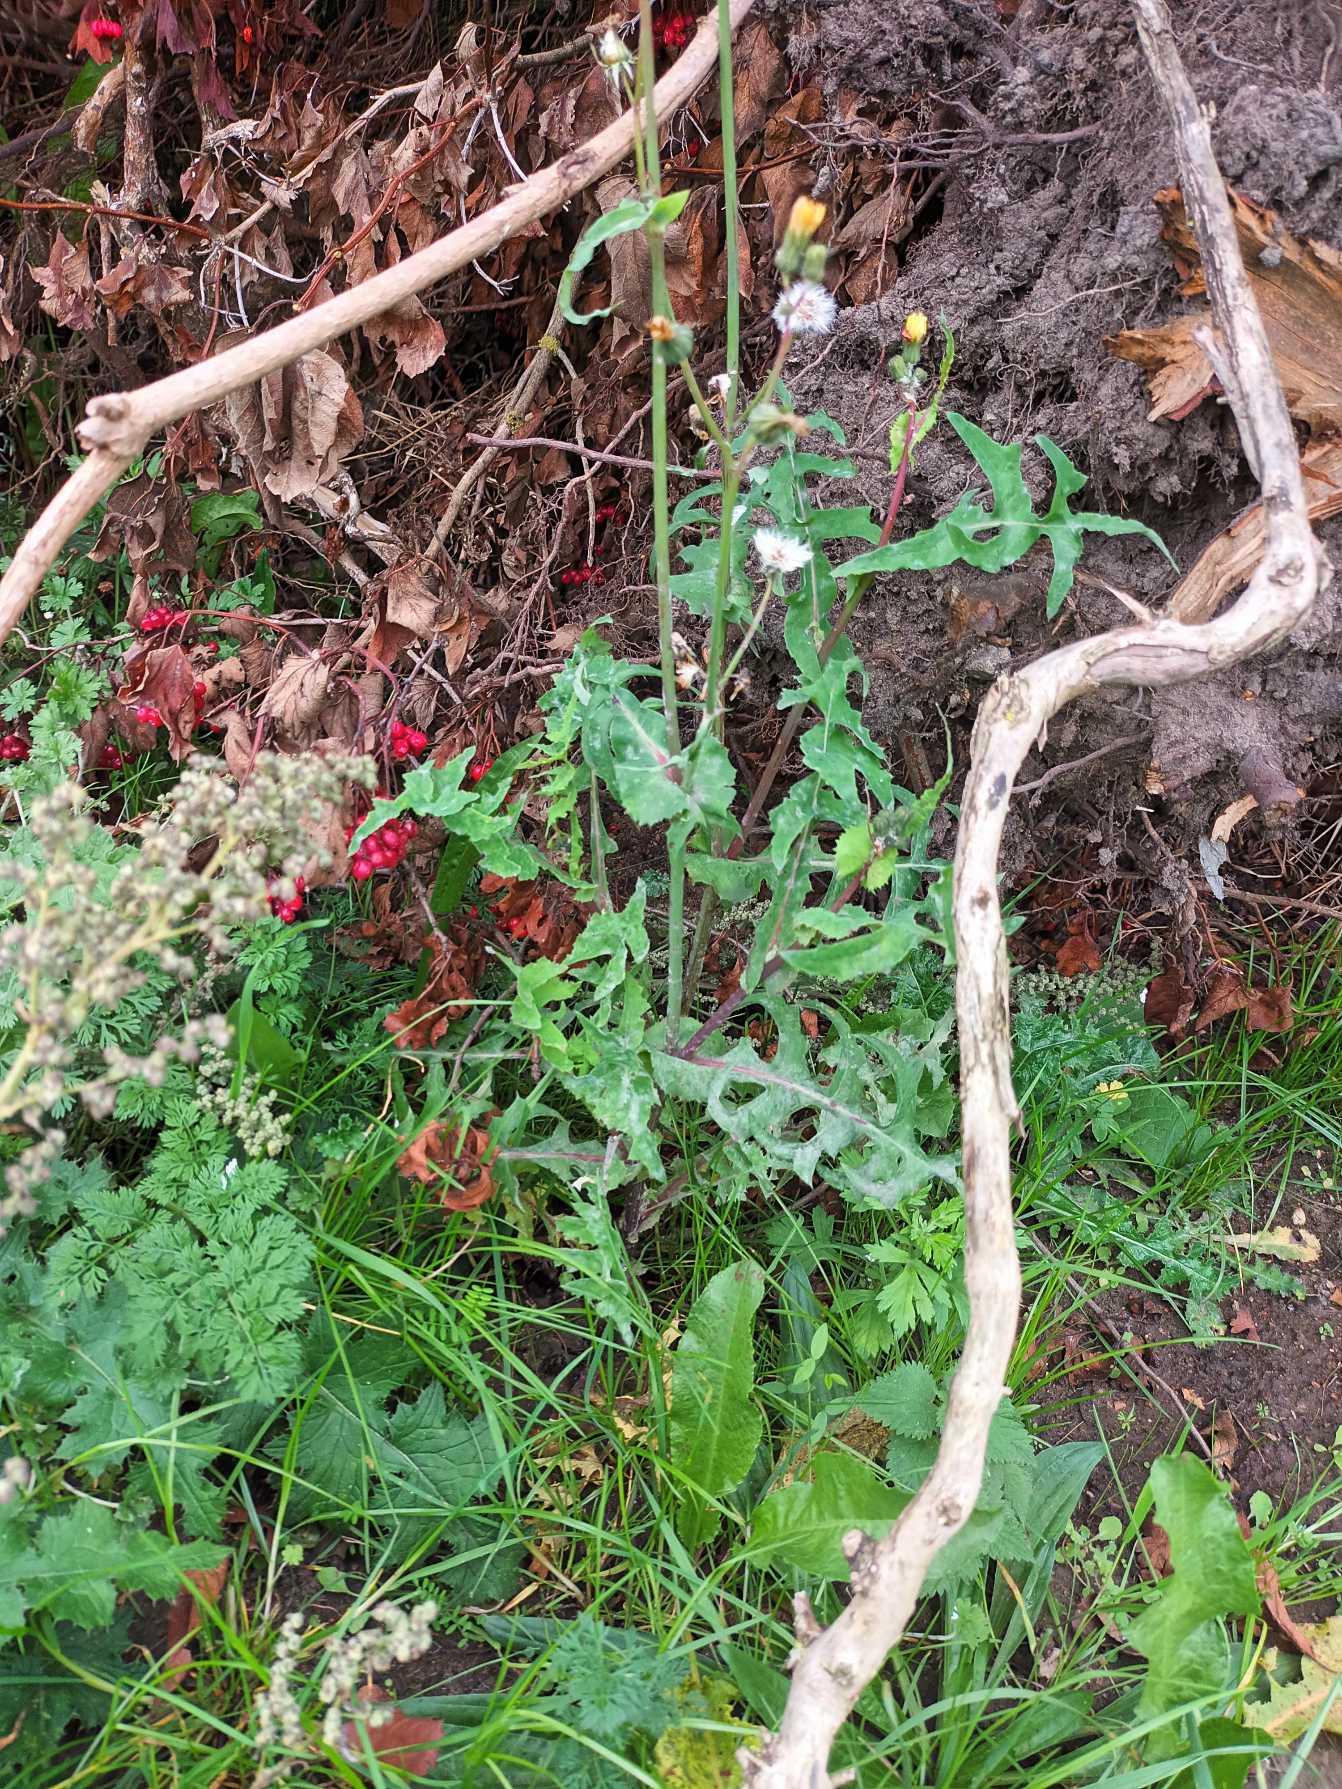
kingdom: Plantae
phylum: Tracheophyta
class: Magnoliopsida
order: Asterales
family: Asteraceae
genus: Sonchus
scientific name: Sonchus oleraceus
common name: Almindelig svinemælk
